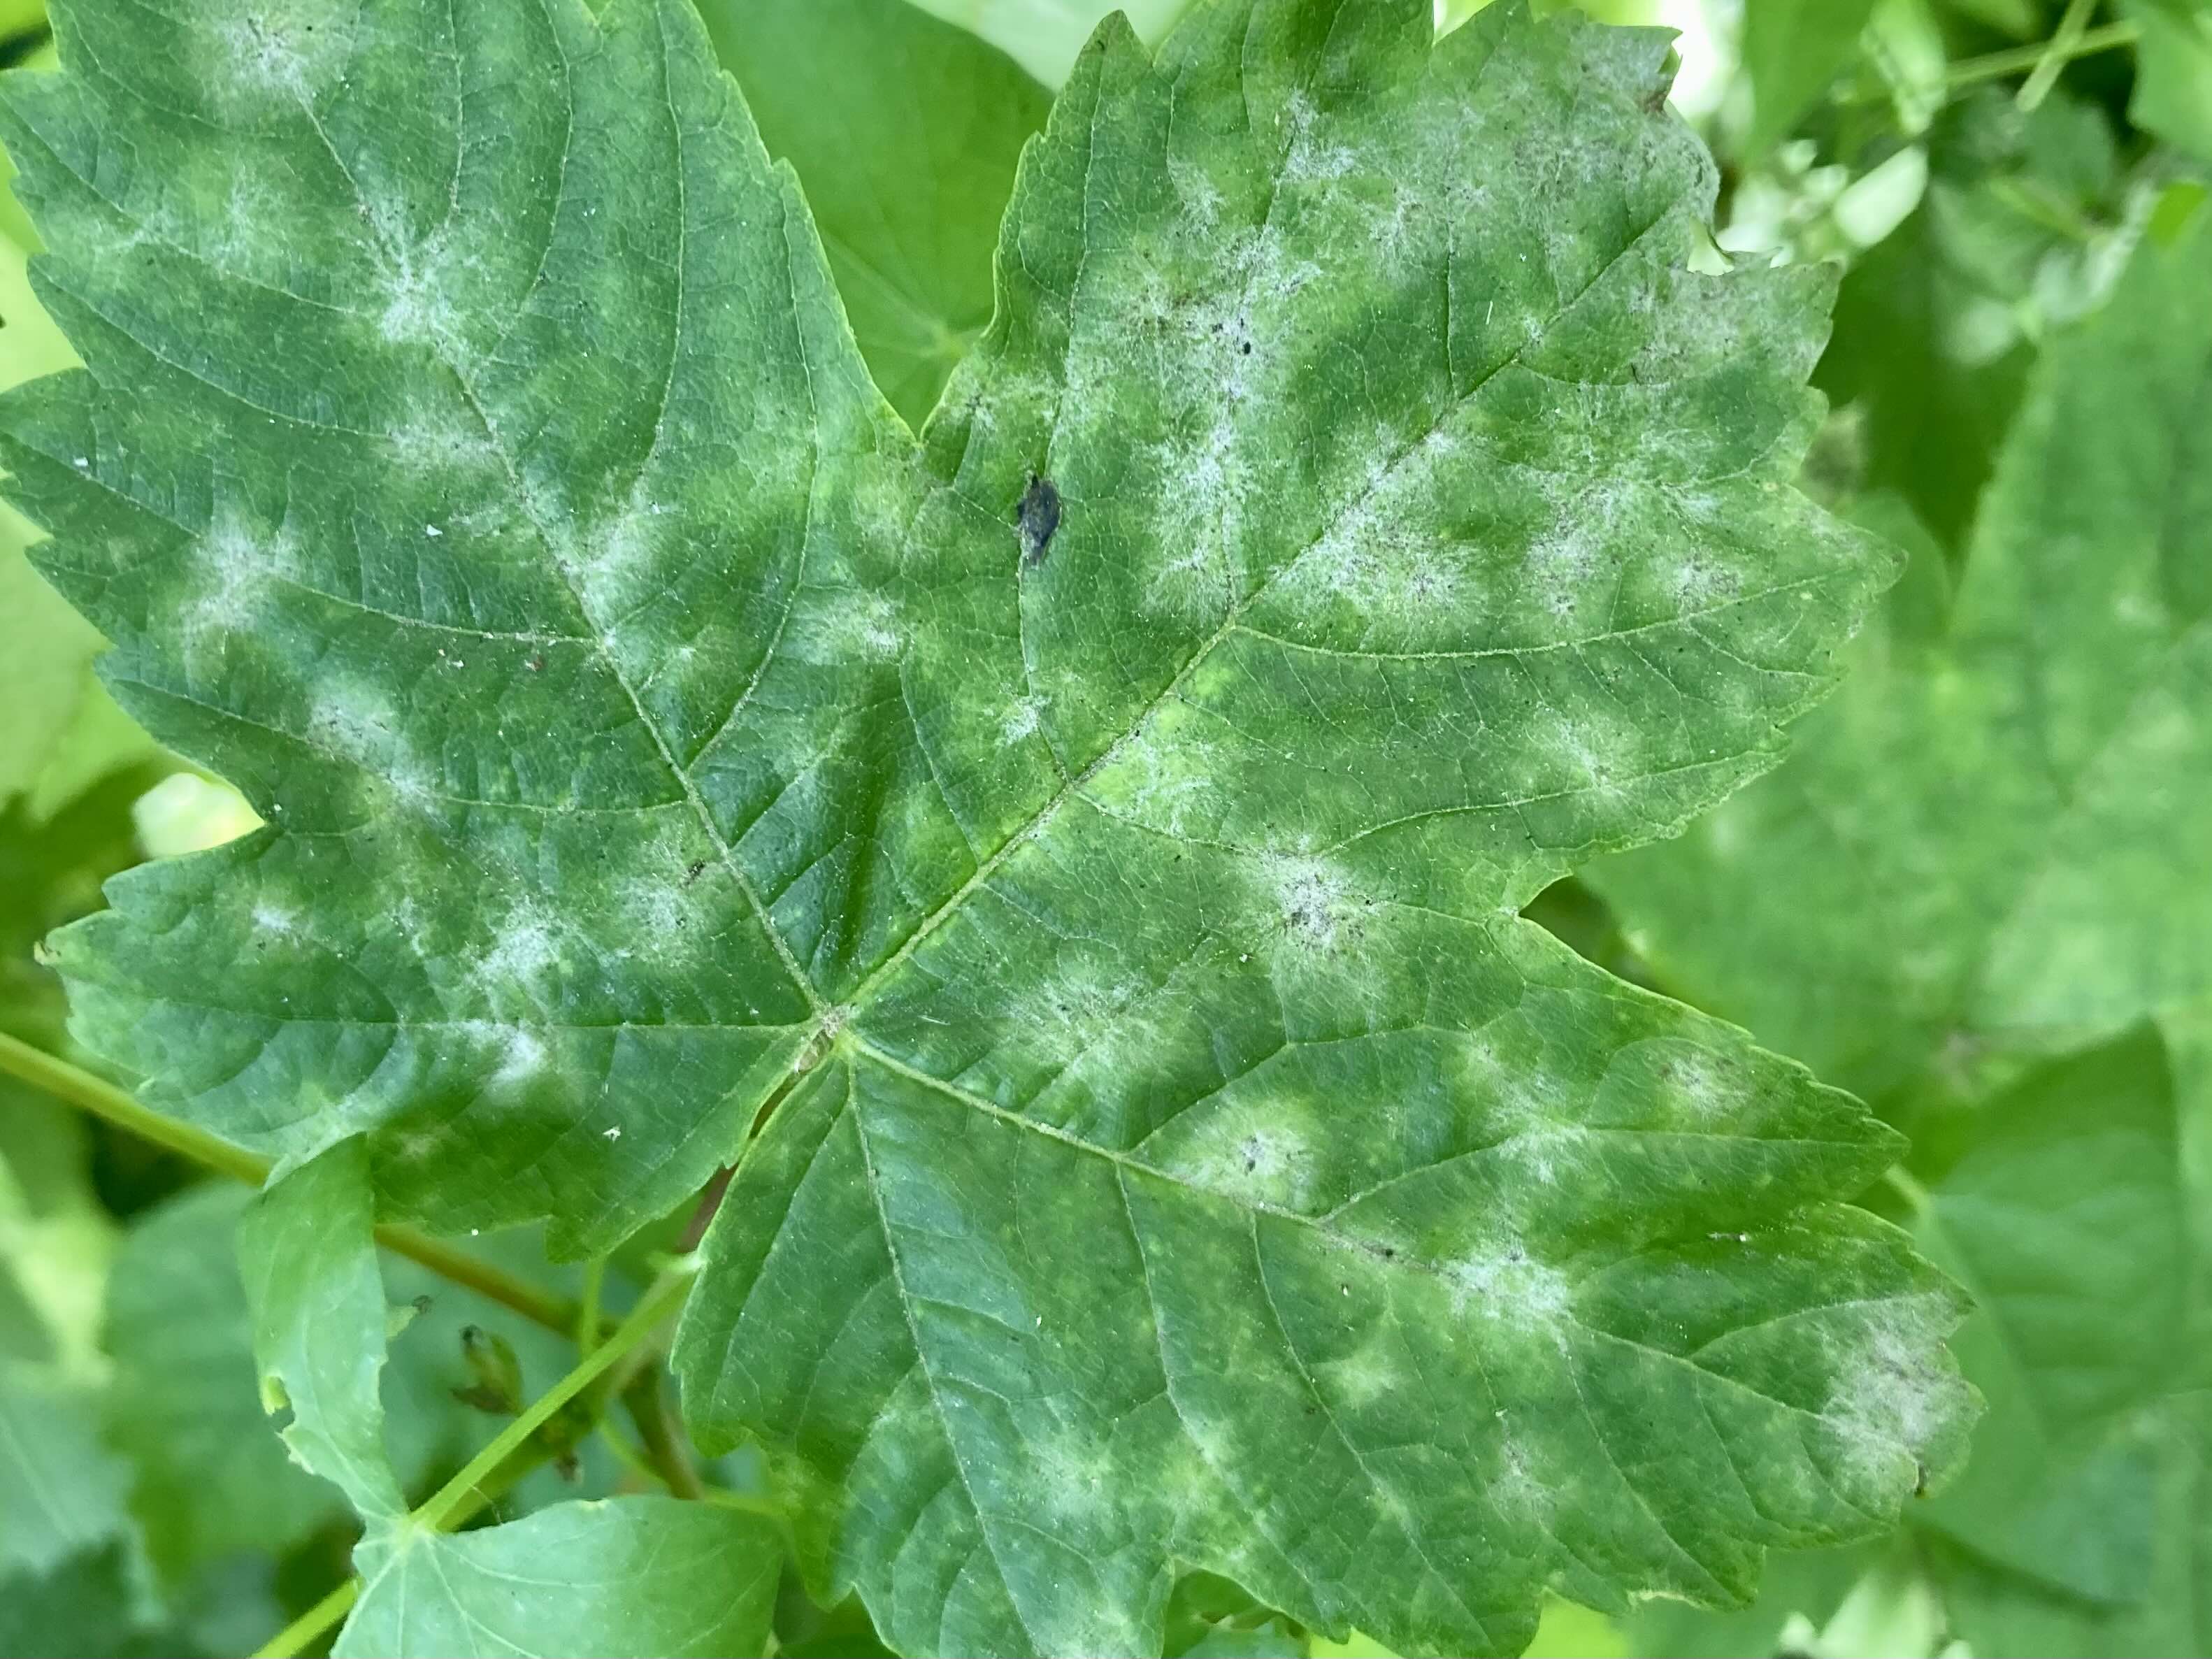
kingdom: Fungi
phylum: Ascomycota
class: Leotiomycetes
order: Helotiales
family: Erysiphaceae
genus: Sawadaea
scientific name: Sawadaea bicornis
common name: Maple mildew
